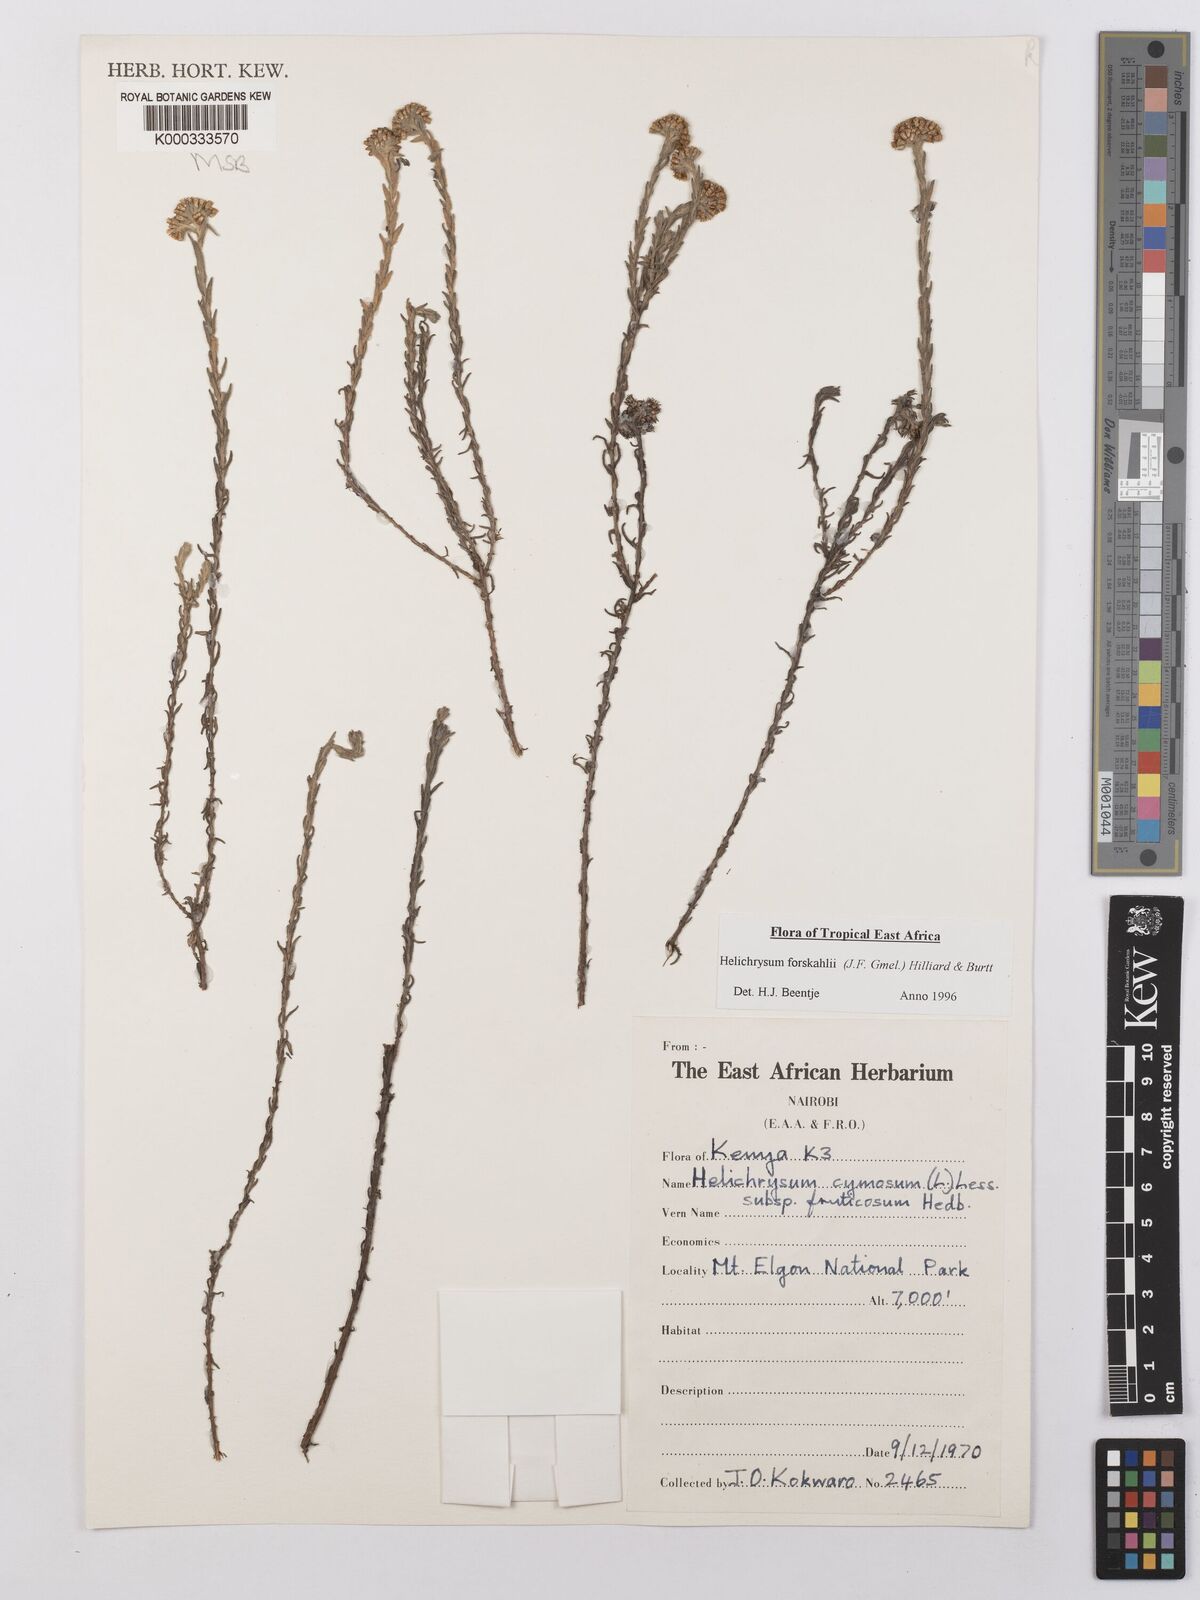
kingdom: Plantae
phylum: Tracheophyta
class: Magnoliopsida
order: Asterales
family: Asteraceae
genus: Helichrysum
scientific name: Helichrysum
